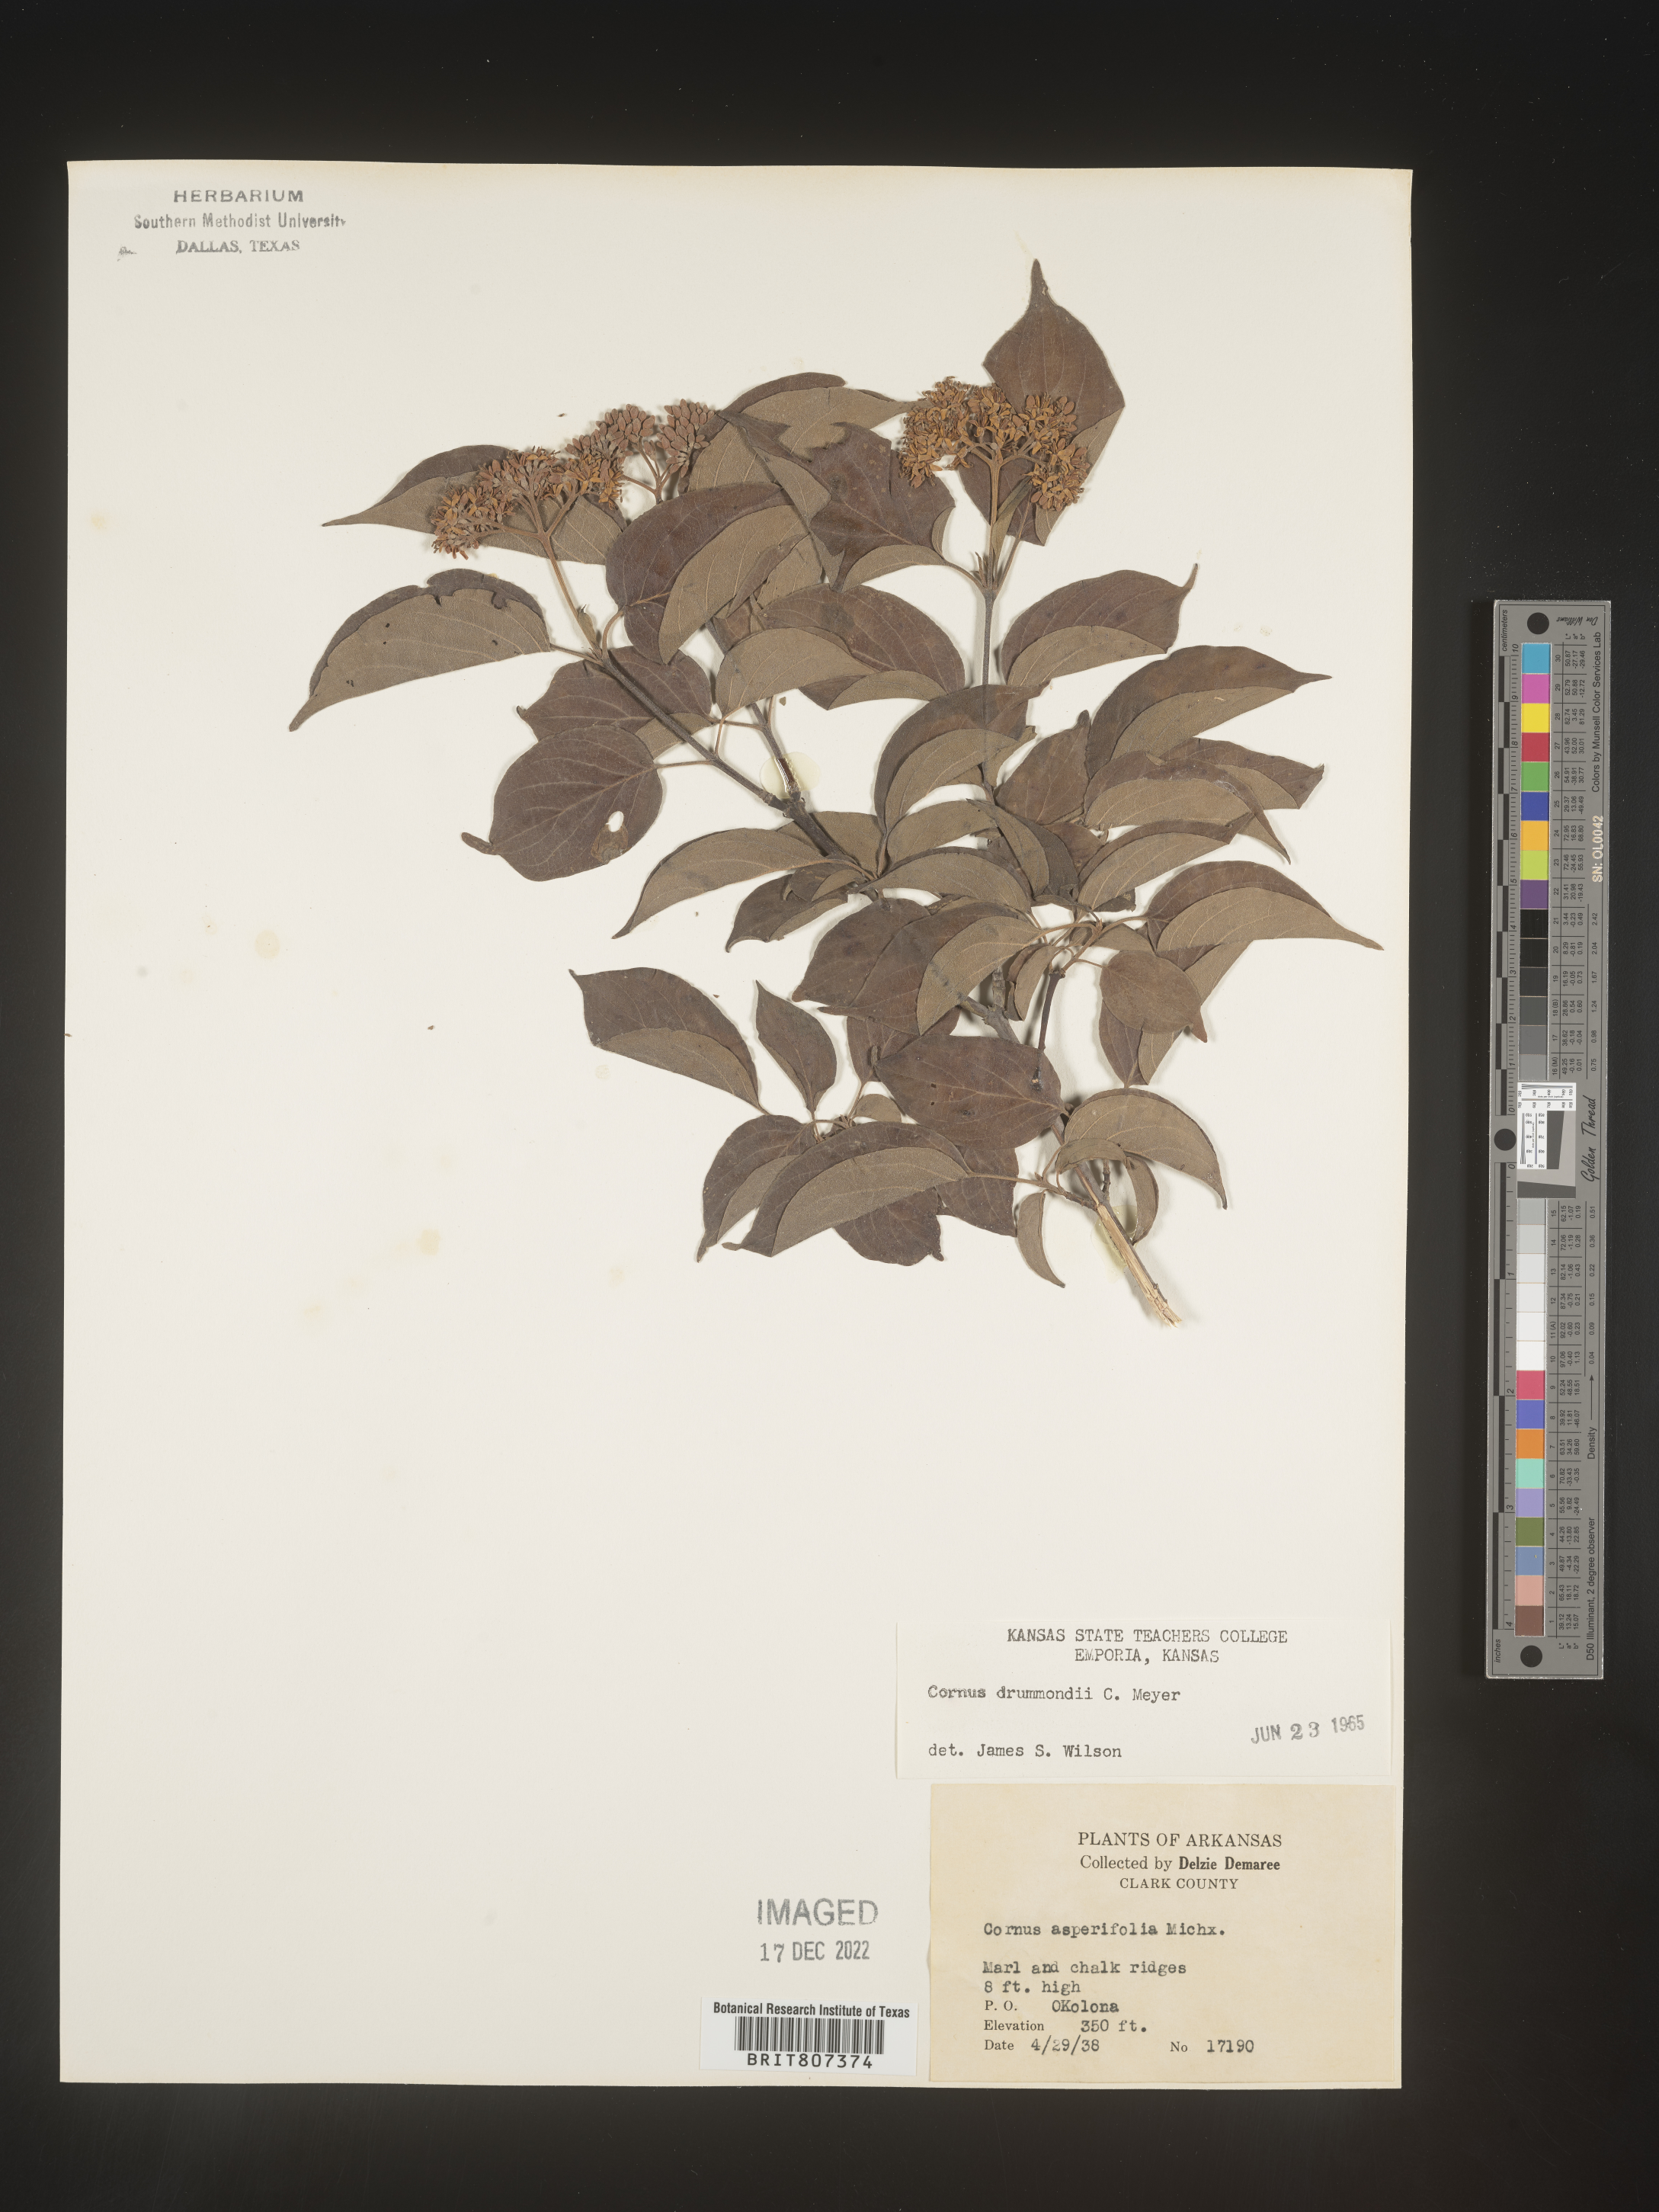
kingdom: Plantae
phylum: Tracheophyta
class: Magnoliopsida
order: Cornales
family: Cornaceae
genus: Cornus
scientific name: Cornus drummondii
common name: Rough-leaf dogwood
